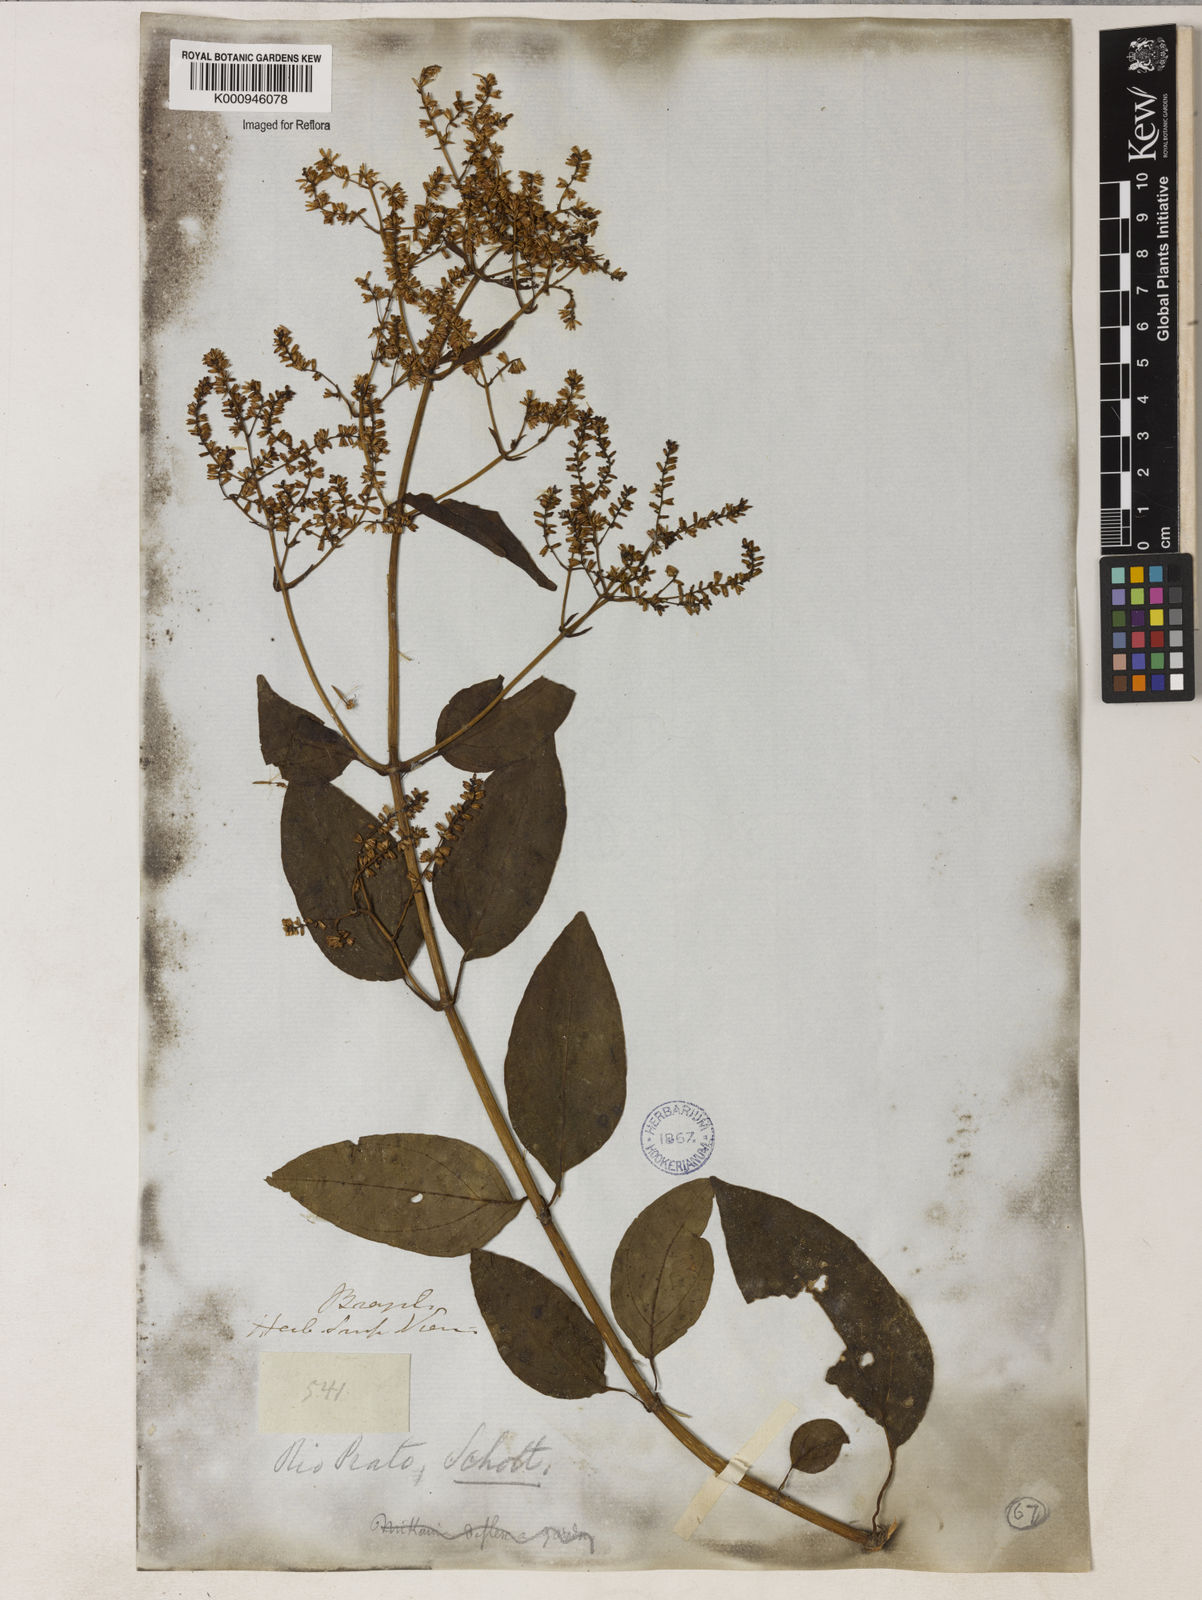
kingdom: Plantae
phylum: Tracheophyta
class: Magnoliopsida
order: Asterales
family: Asteraceae
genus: Mikania
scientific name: Mikania nigricans
